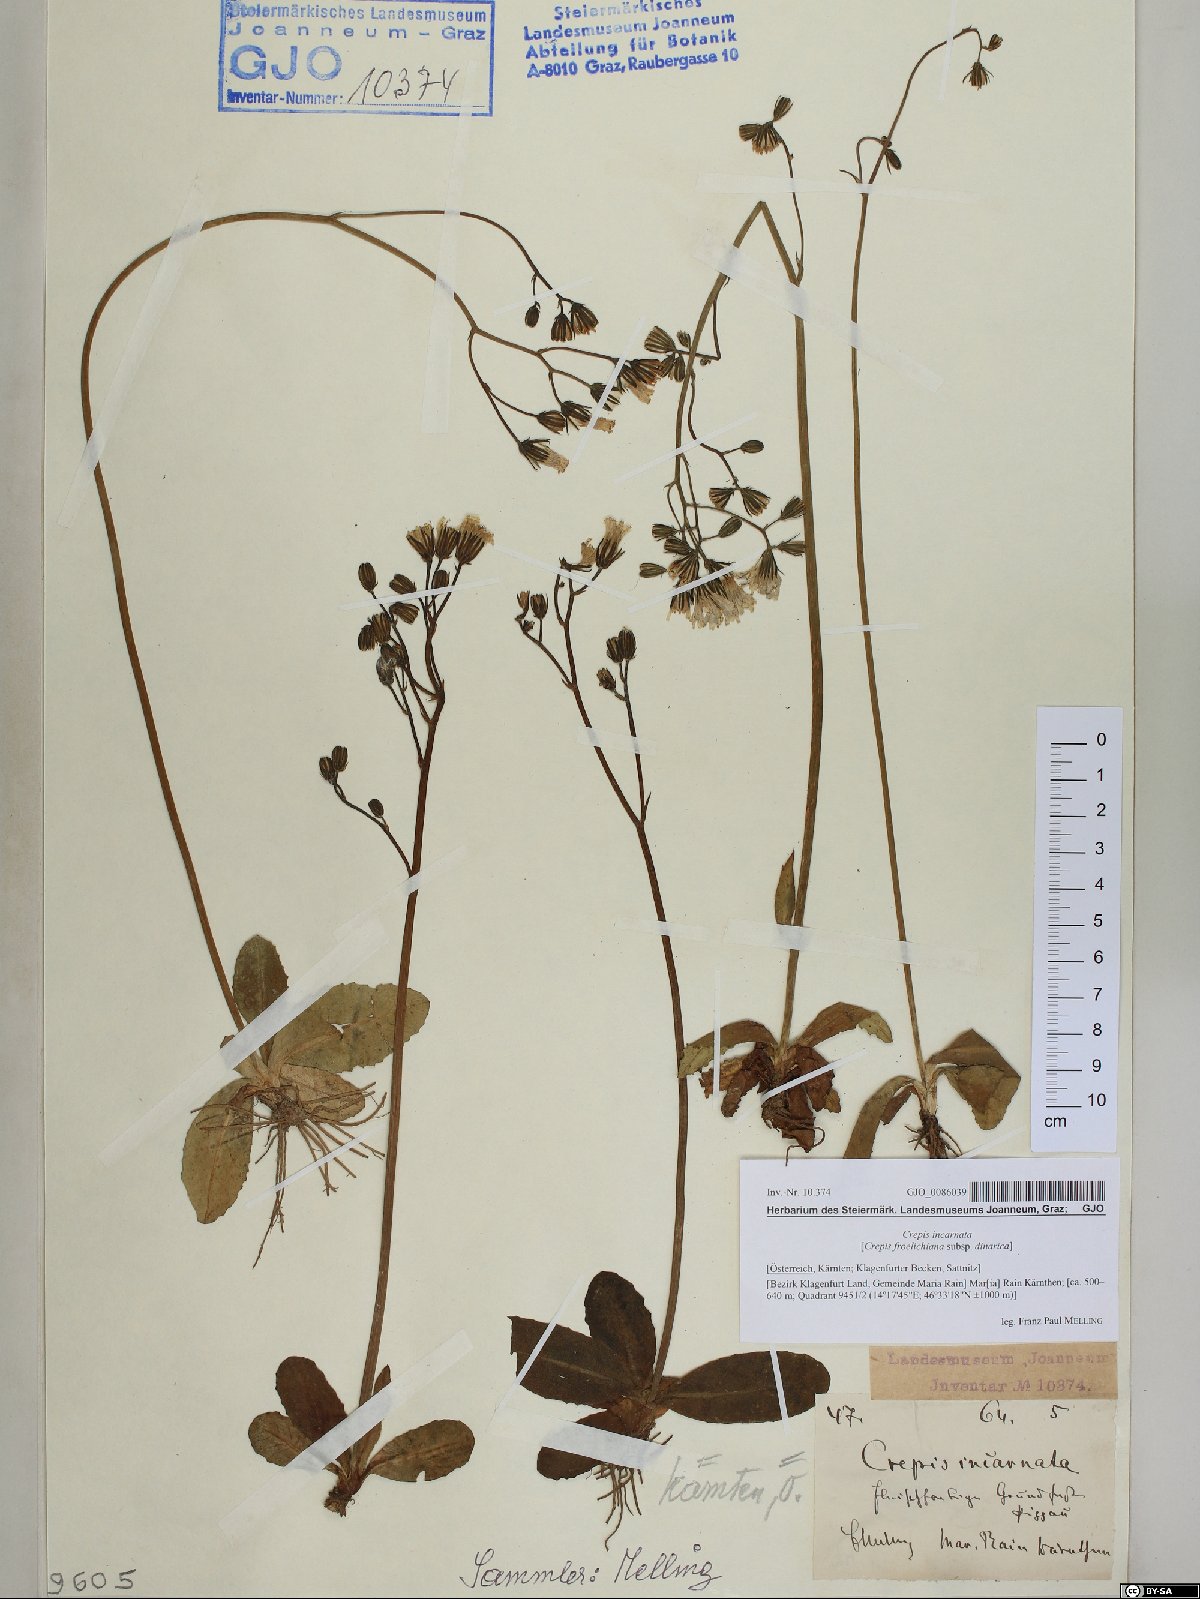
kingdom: Plantae
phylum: Tracheophyta
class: Magnoliopsida
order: Asterales
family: Asteraceae
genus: Crepis
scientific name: Crepis froelichiana
